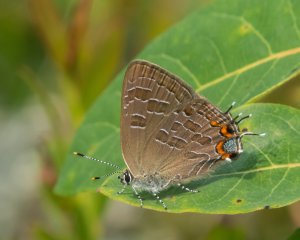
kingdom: Animalia
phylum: Arthropoda
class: Insecta
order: Lepidoptera
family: Lycaenidae
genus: Satyrium
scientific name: Satyrium liparops
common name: Striped Hairstreak
